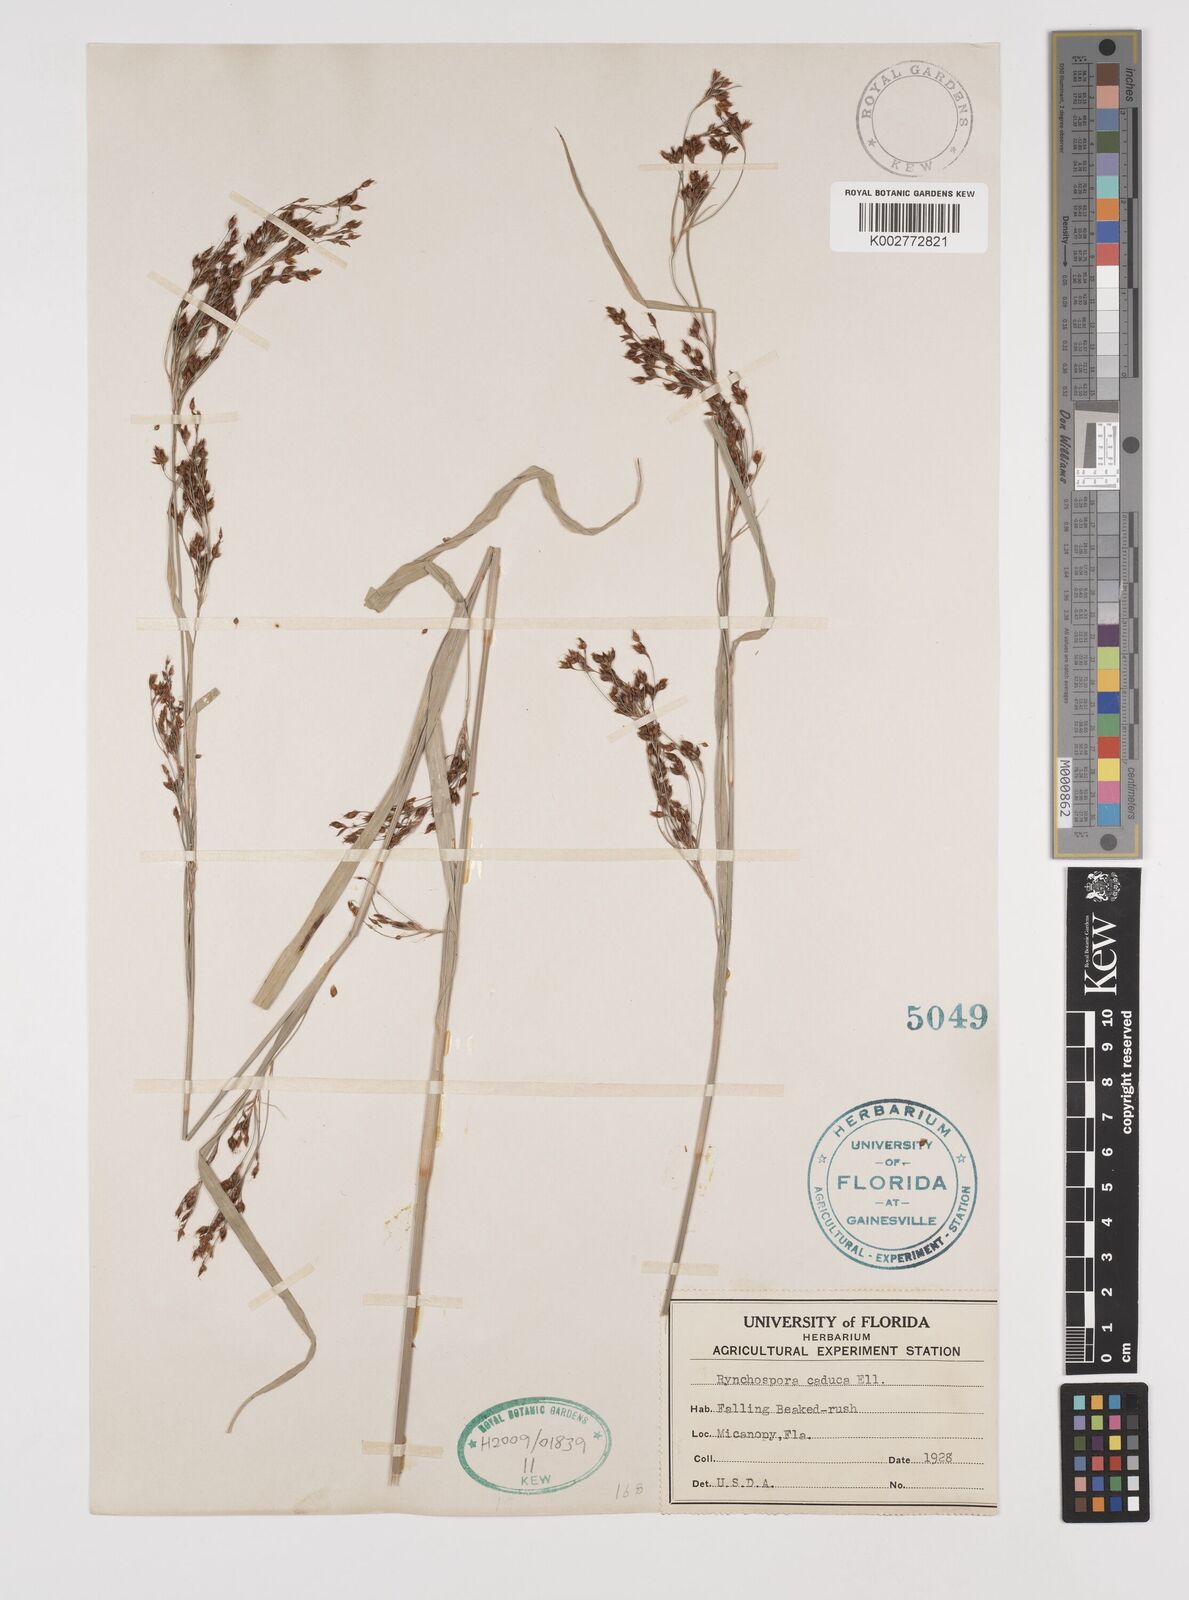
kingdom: Plantae
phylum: Tracheophyta
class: Liliopsida
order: Poales
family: Cyperaceae
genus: Rhynchospora
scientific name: Rhynchospora caduca
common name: Anglestem beaksedge
